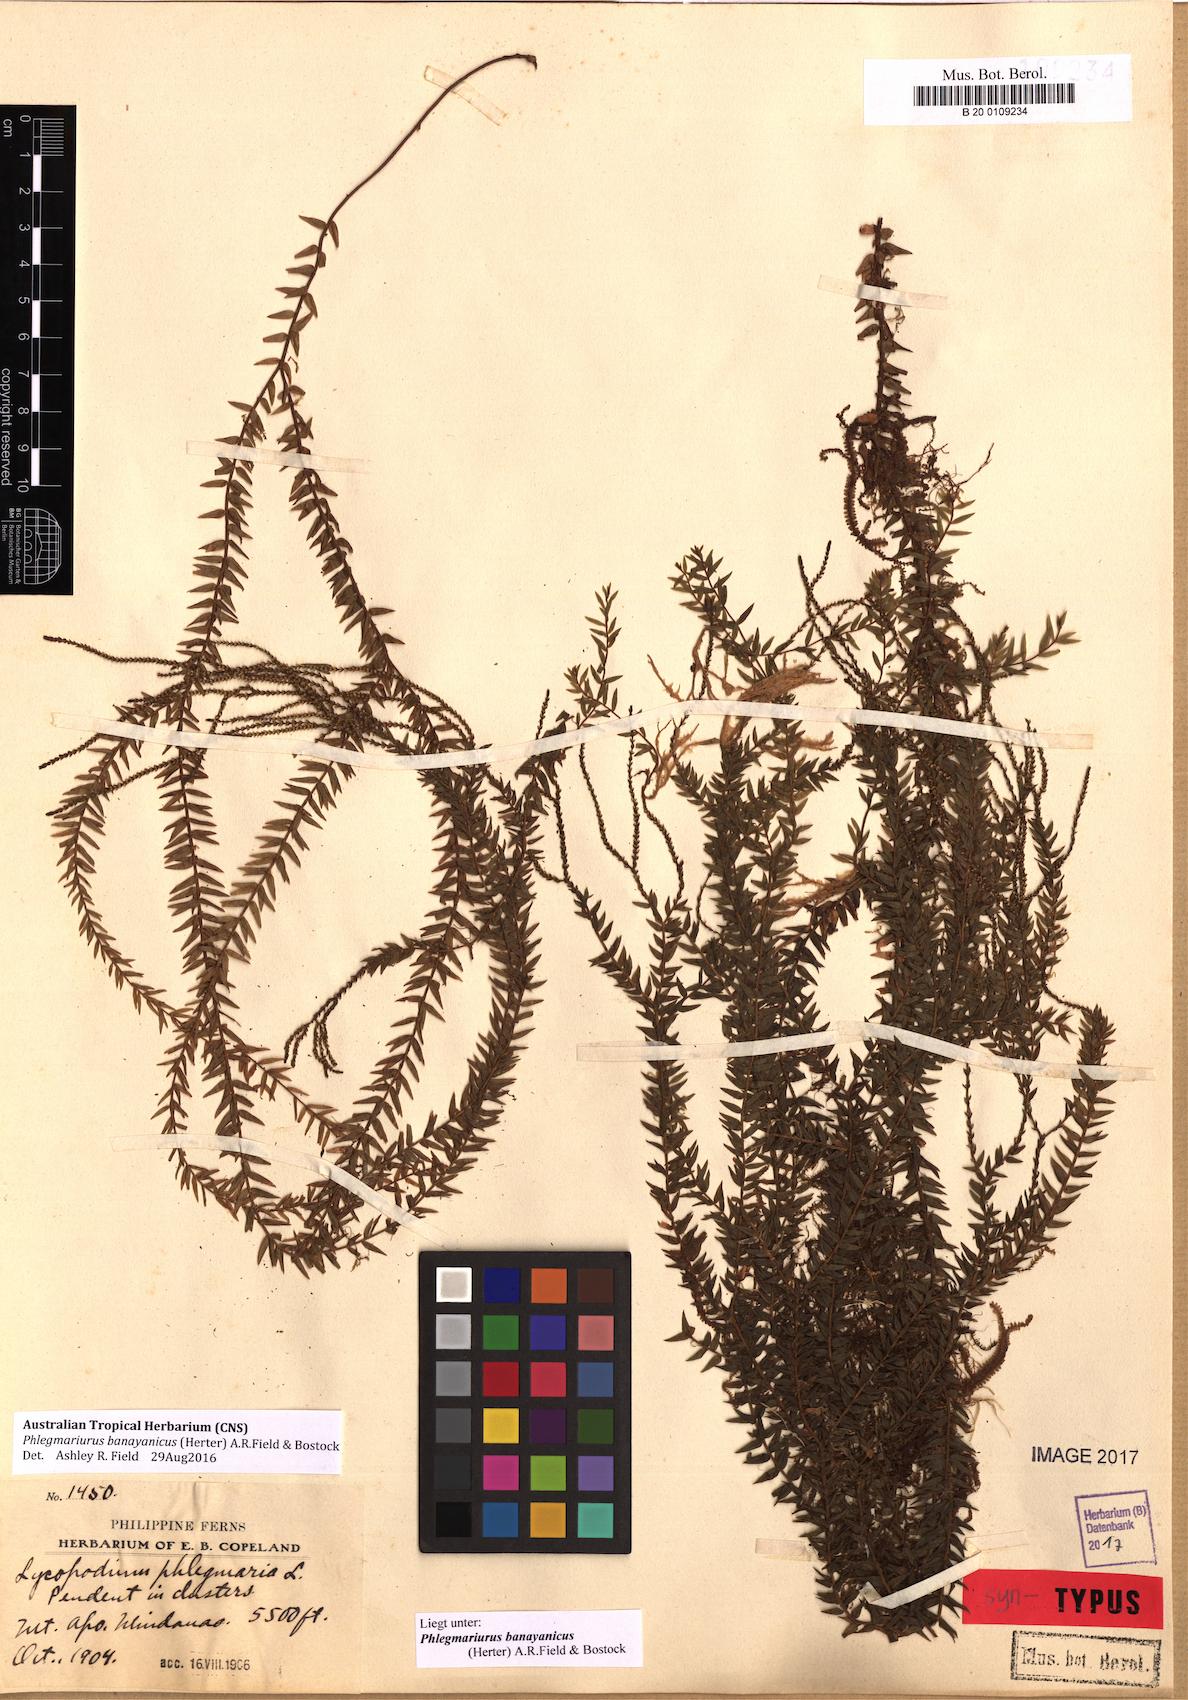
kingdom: Plantae
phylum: Tracheophyta
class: Lycopodiopsida
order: Lycopodiales
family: Lycopodiaceae
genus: Phlegmariurus
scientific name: Phlegmariurus banayanicus
